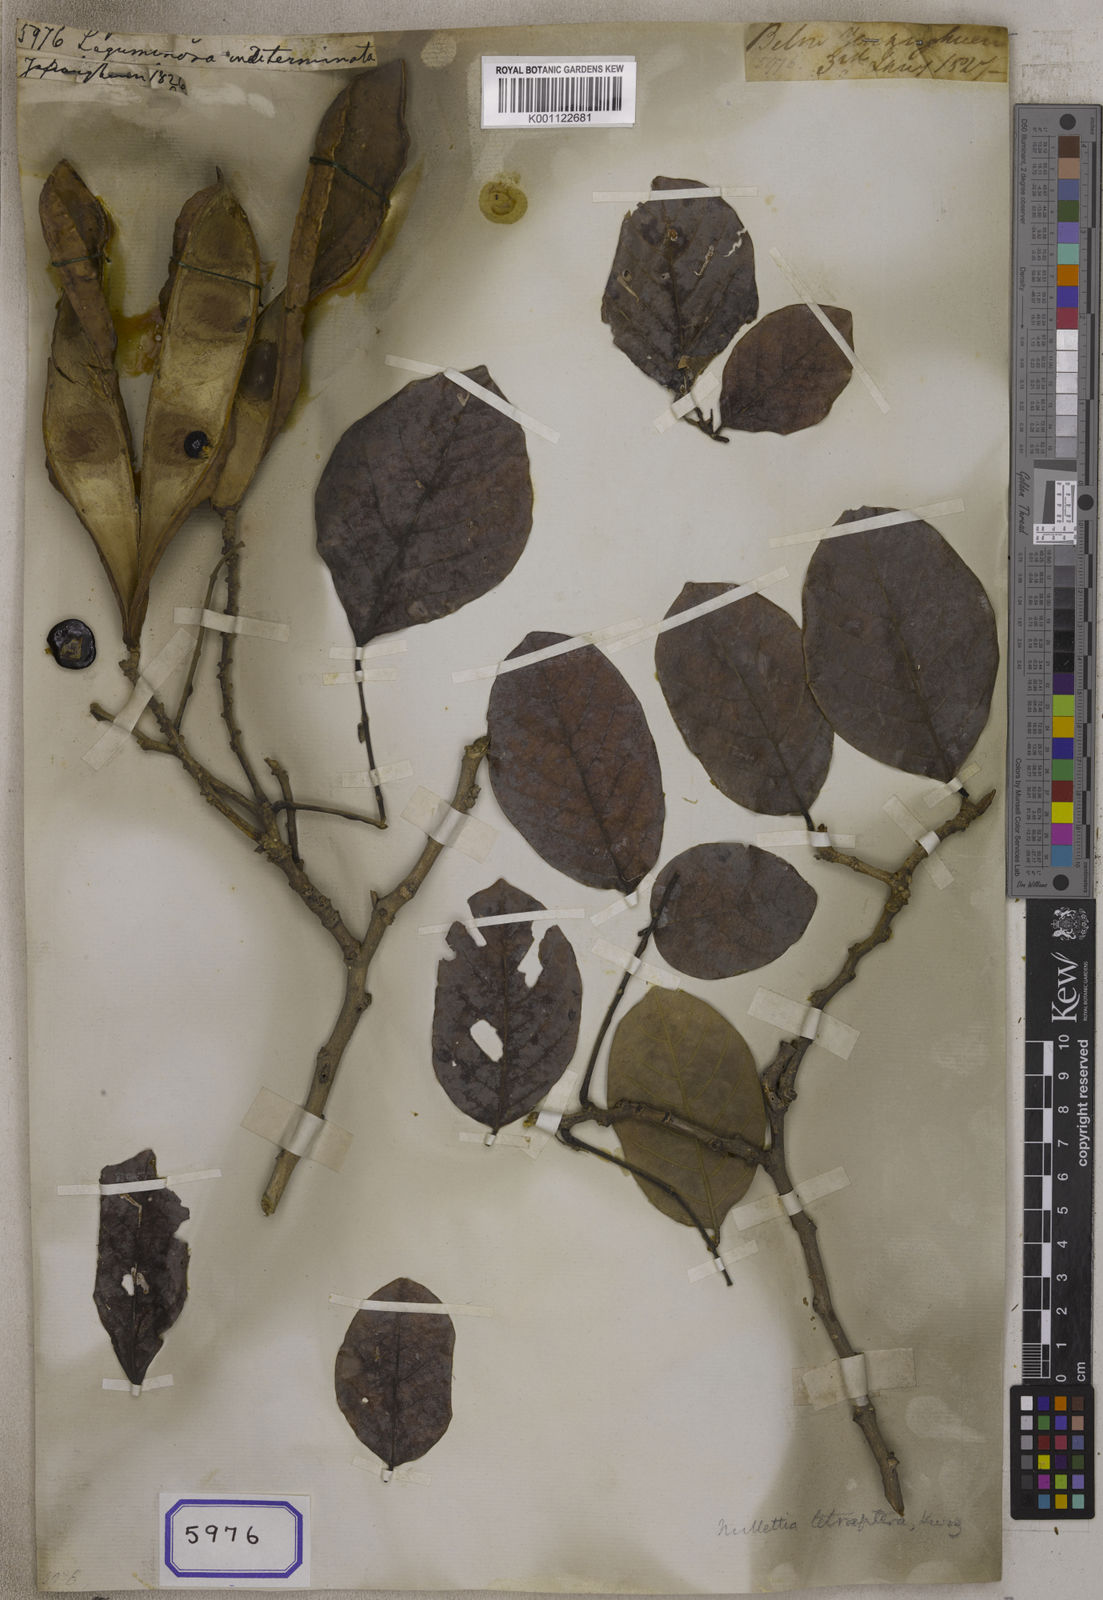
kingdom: Plantae
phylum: Tracheophyta
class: Magnoliopsida
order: Fabales
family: Fabaceae
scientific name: Fabaceae
